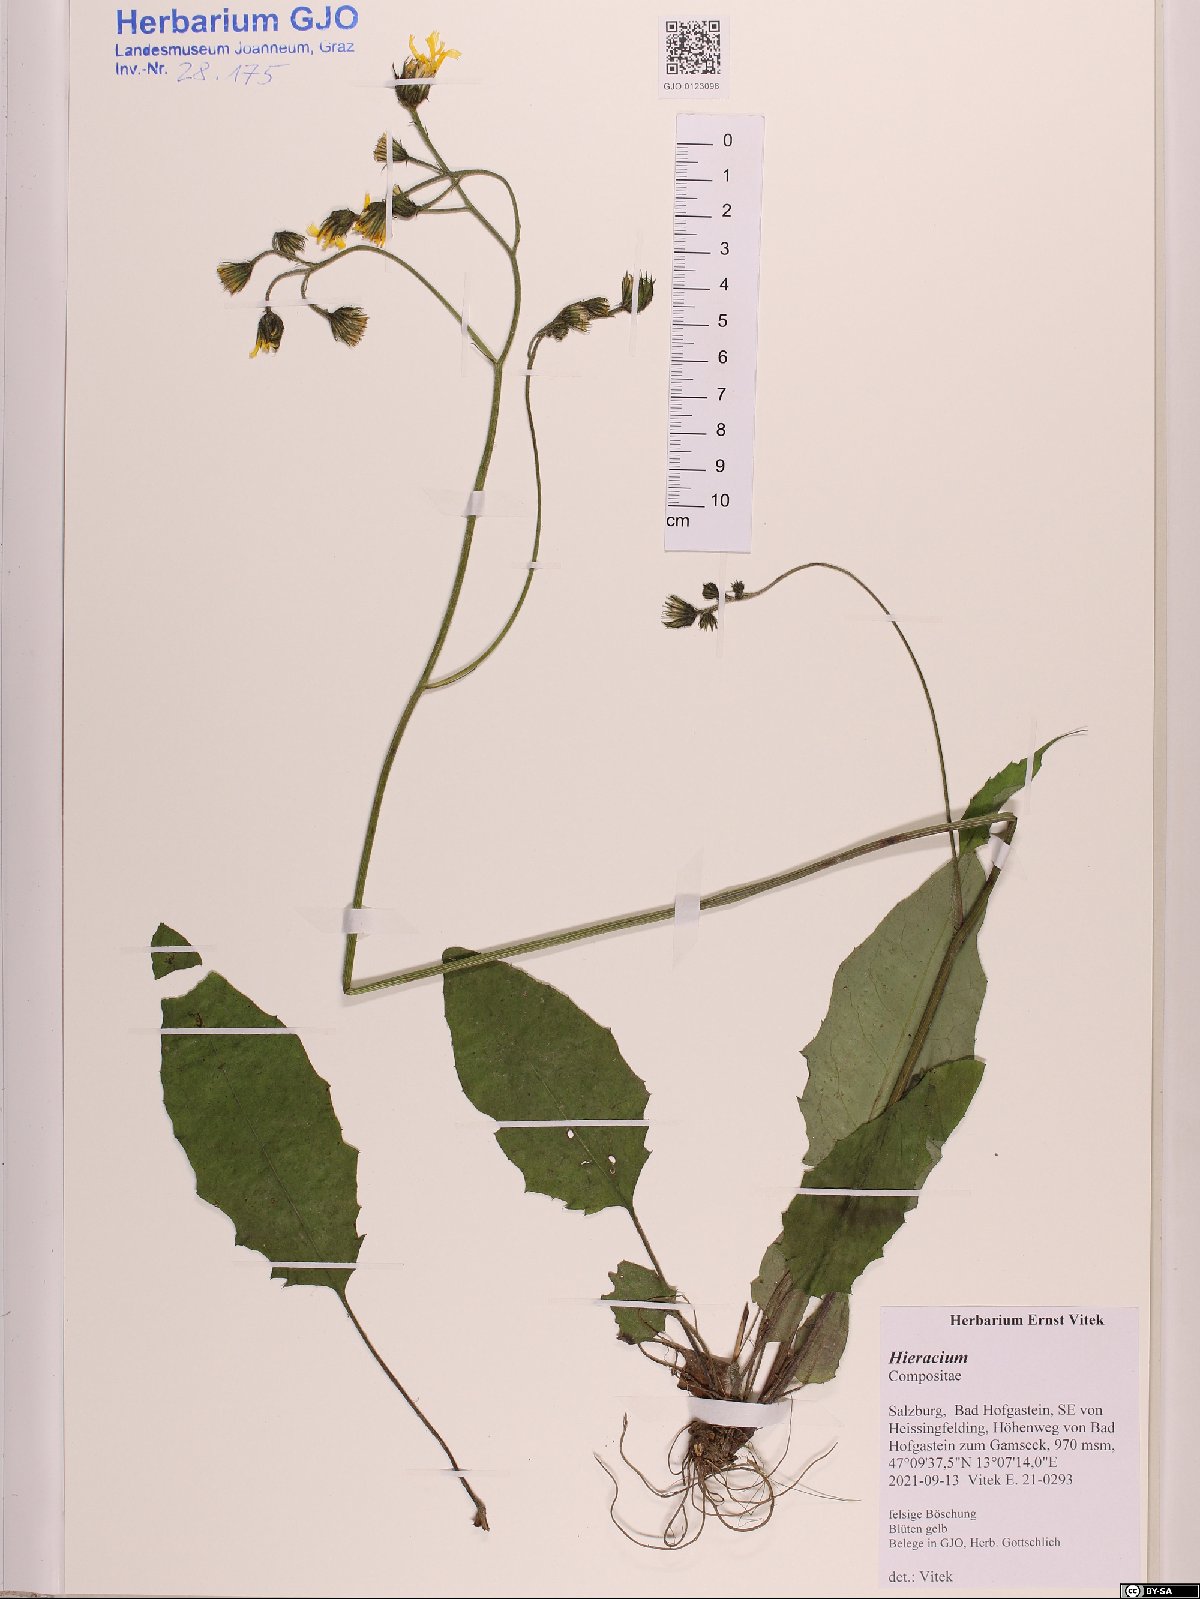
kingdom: Plantae
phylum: Tracheophyta
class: Magnoliopsida
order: Asterales
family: Asteraceae
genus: Hieracium
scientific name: Hieracium
